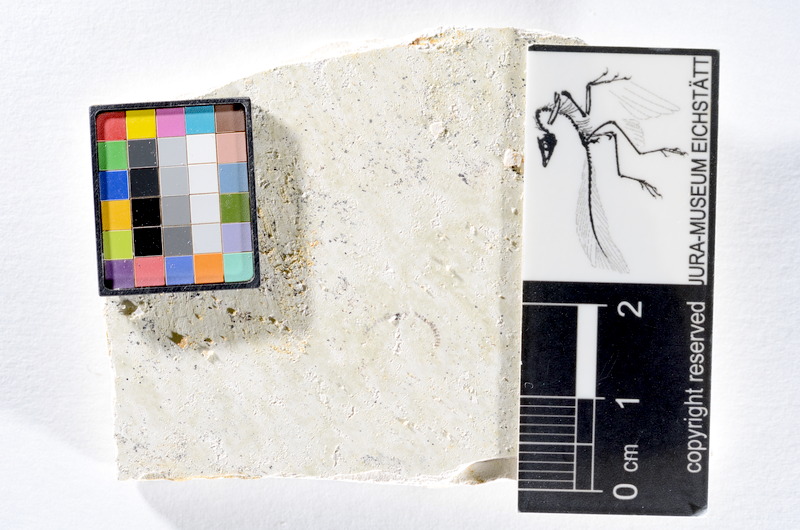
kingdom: Animalia
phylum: Chordata
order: Salmoniformes
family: Orthogonikleithridae
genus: Orthogonikleithrus
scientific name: Orthogonikleithrus hoelli
